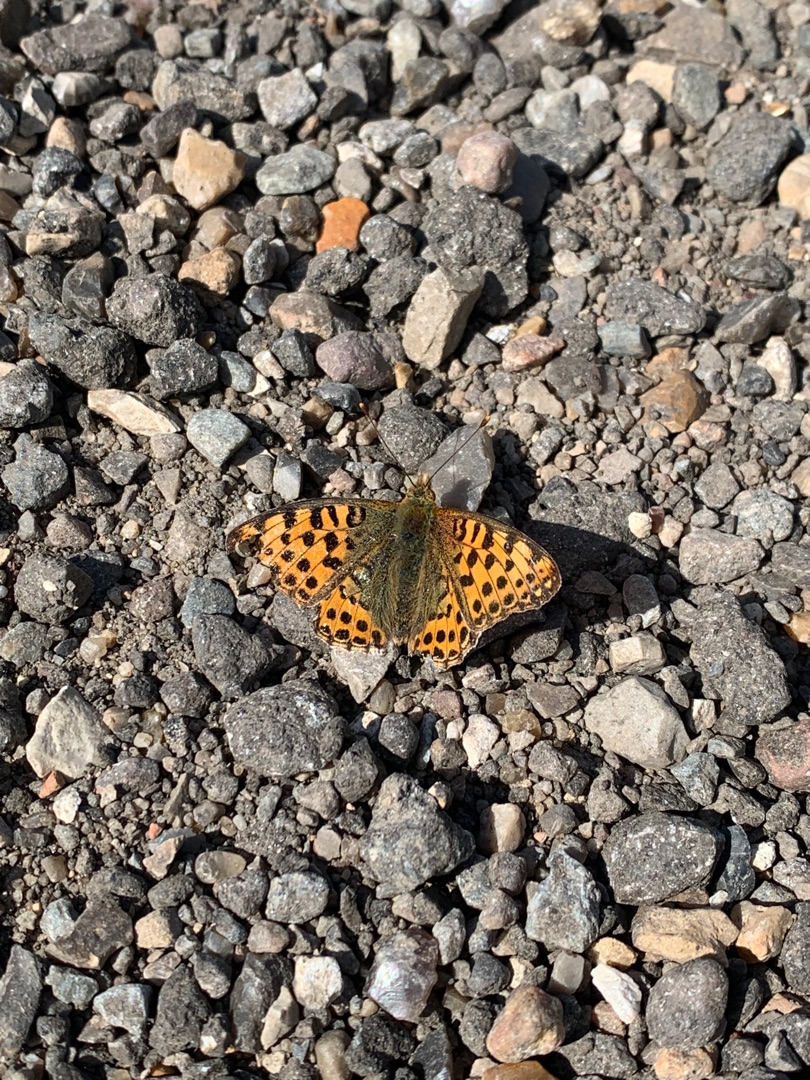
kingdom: Animalia
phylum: Arthropoda
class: Insecta
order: Lepidoptera
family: Nymphalidae
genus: Issoria
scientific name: Issoria lathonia
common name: Storplettet perlemorsommerfugl
